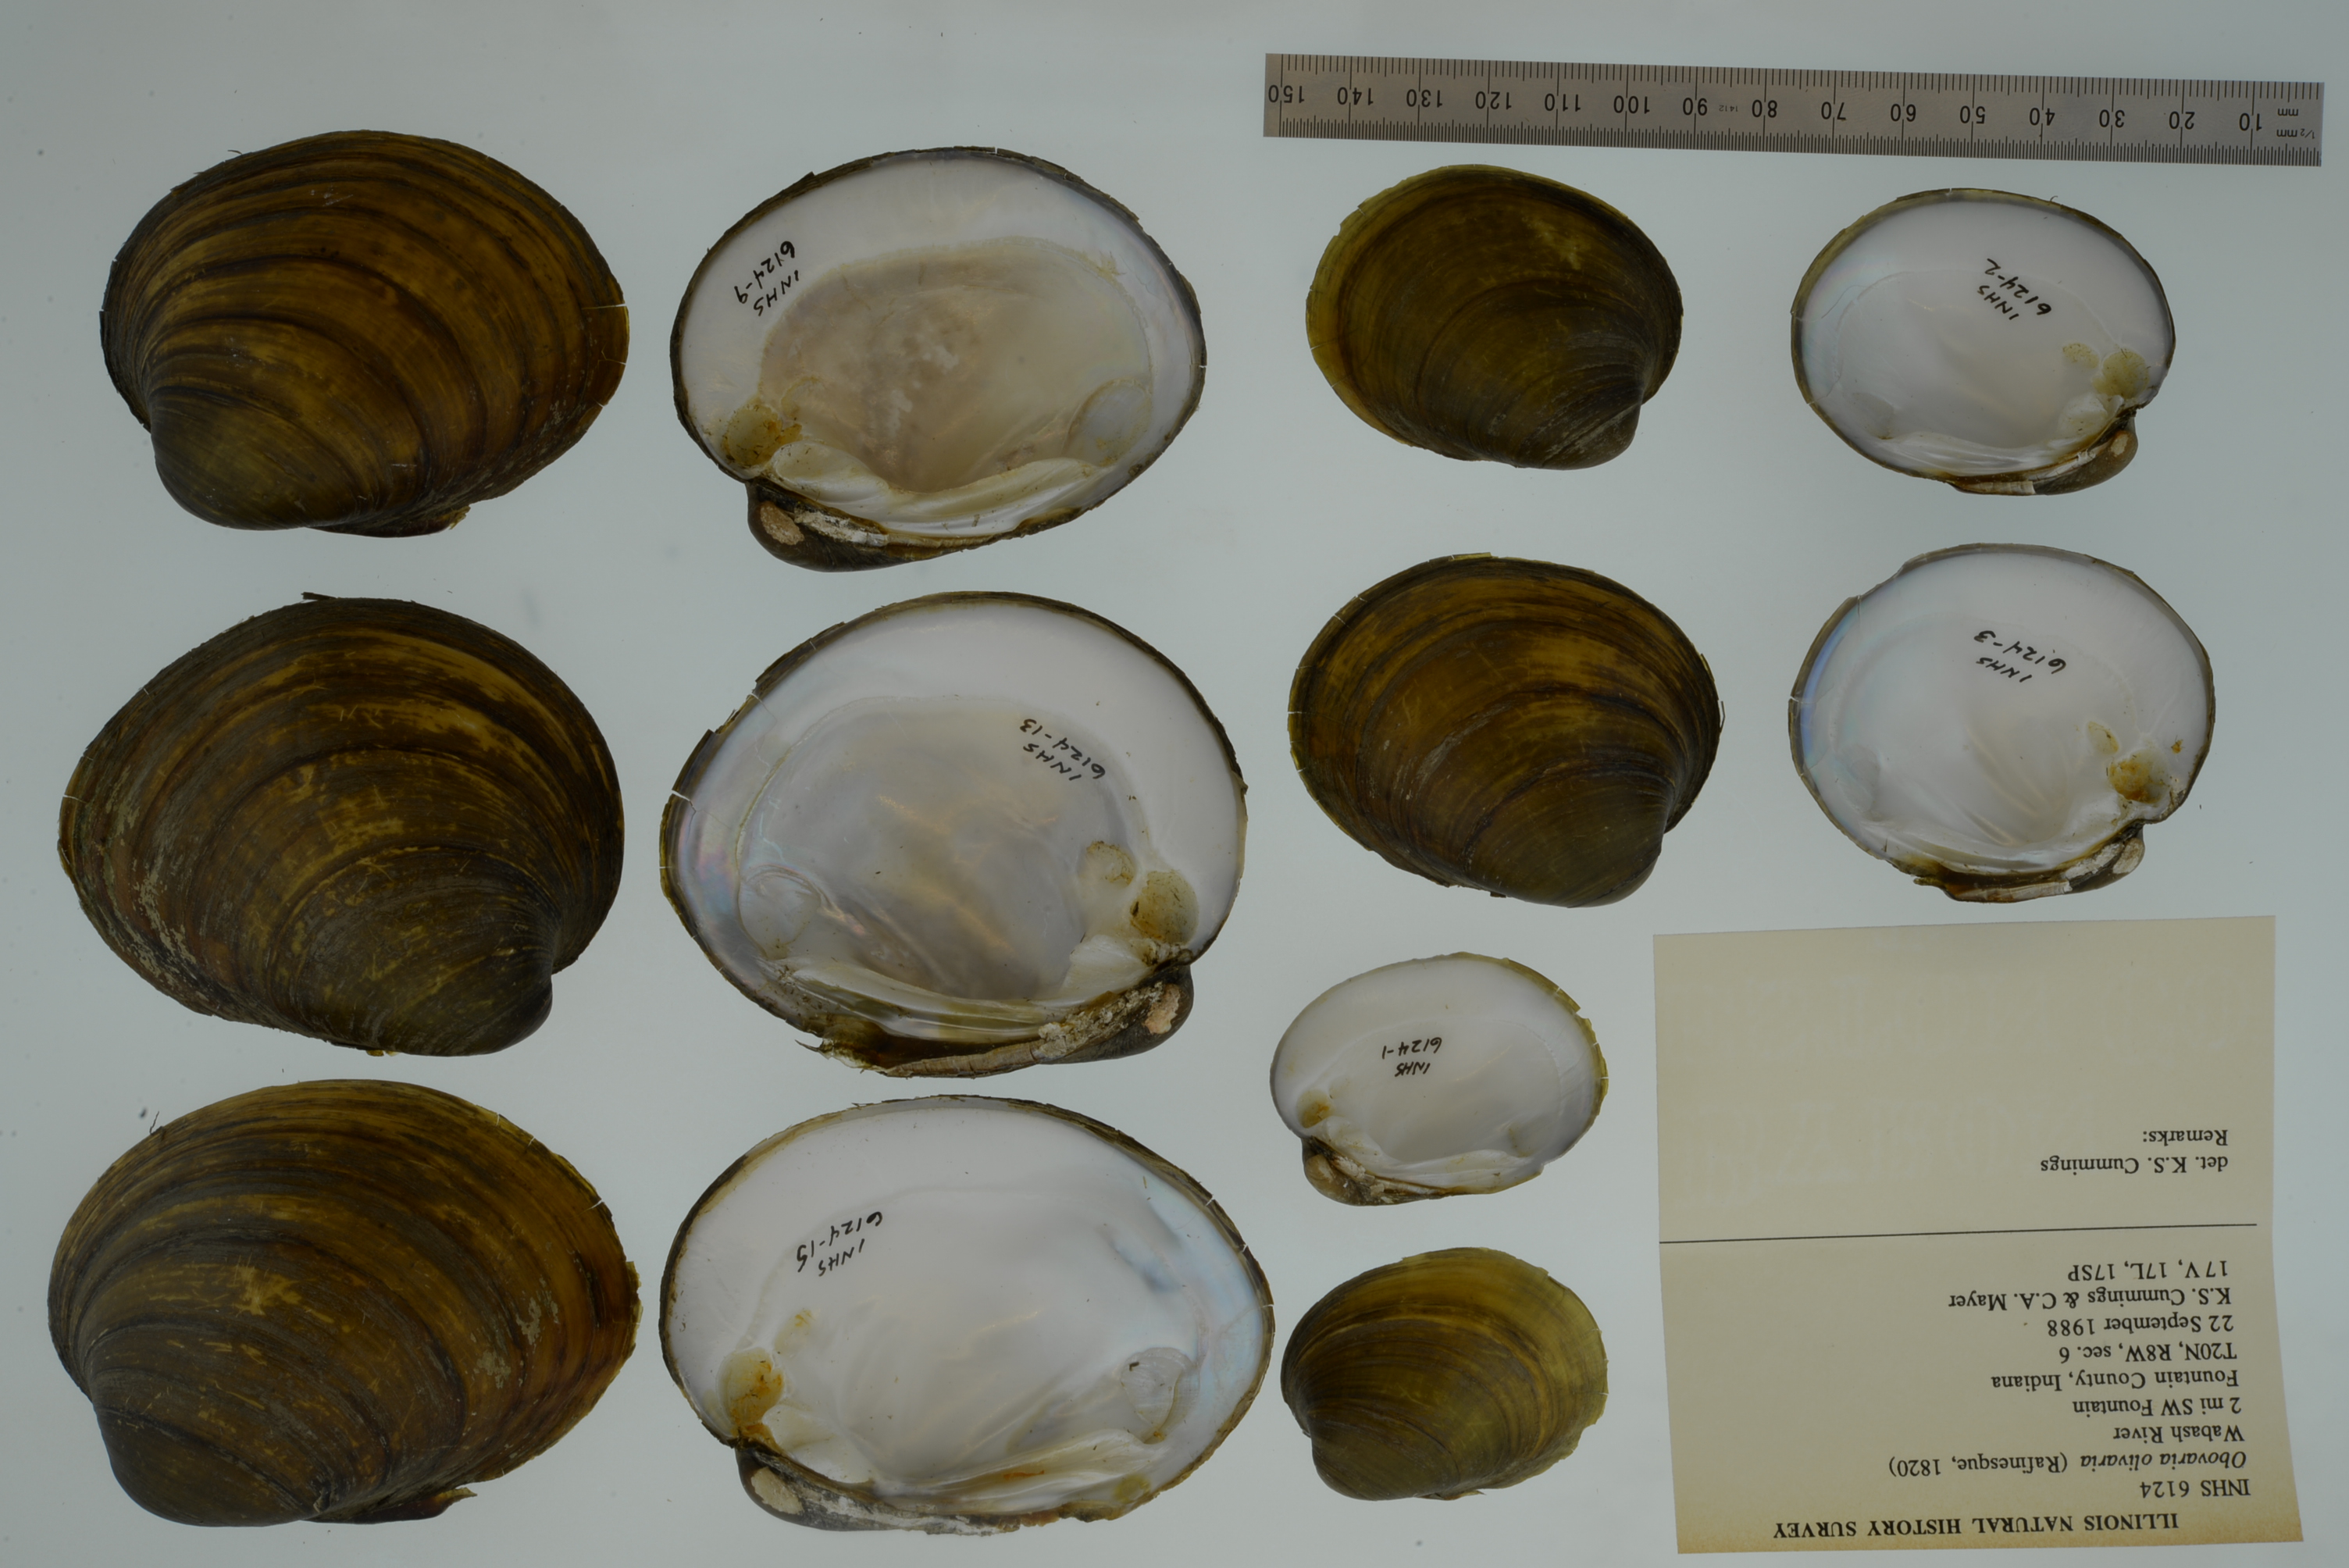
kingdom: Animalia
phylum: Mollusca
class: Bivalvia
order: Unionida
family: Unionidae
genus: Obovaria
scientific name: Obovaria olivaria
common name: Hickorynut
